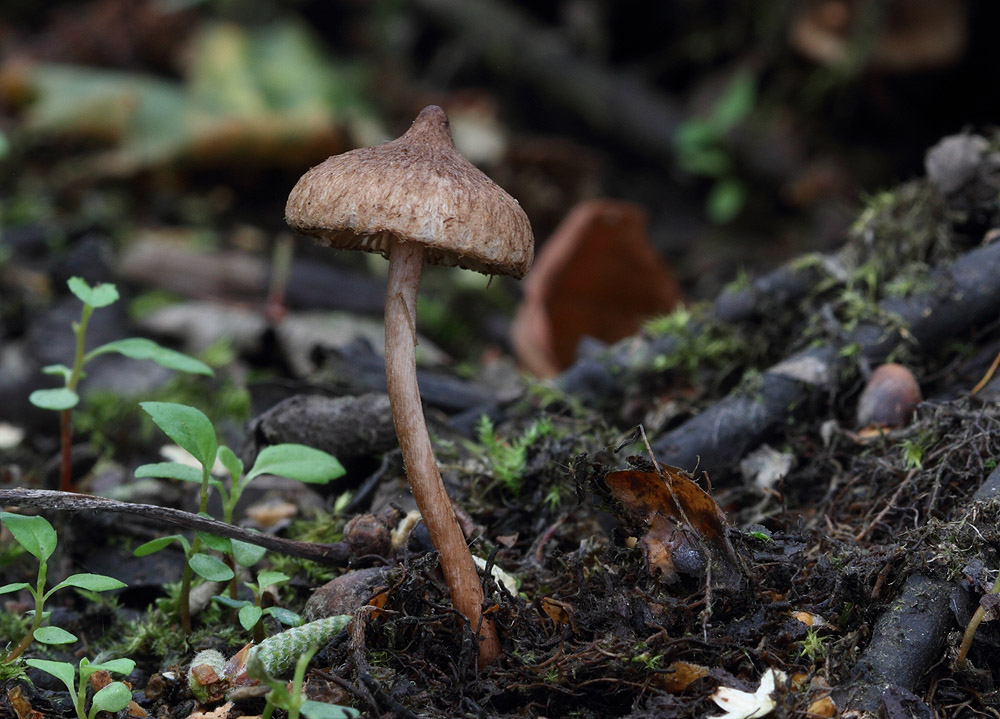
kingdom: Fungi
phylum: Basidiomycota
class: Agaricomycetes
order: Agaricales
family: Inocybaceae
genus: Inocybe
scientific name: Inocybe helobia
